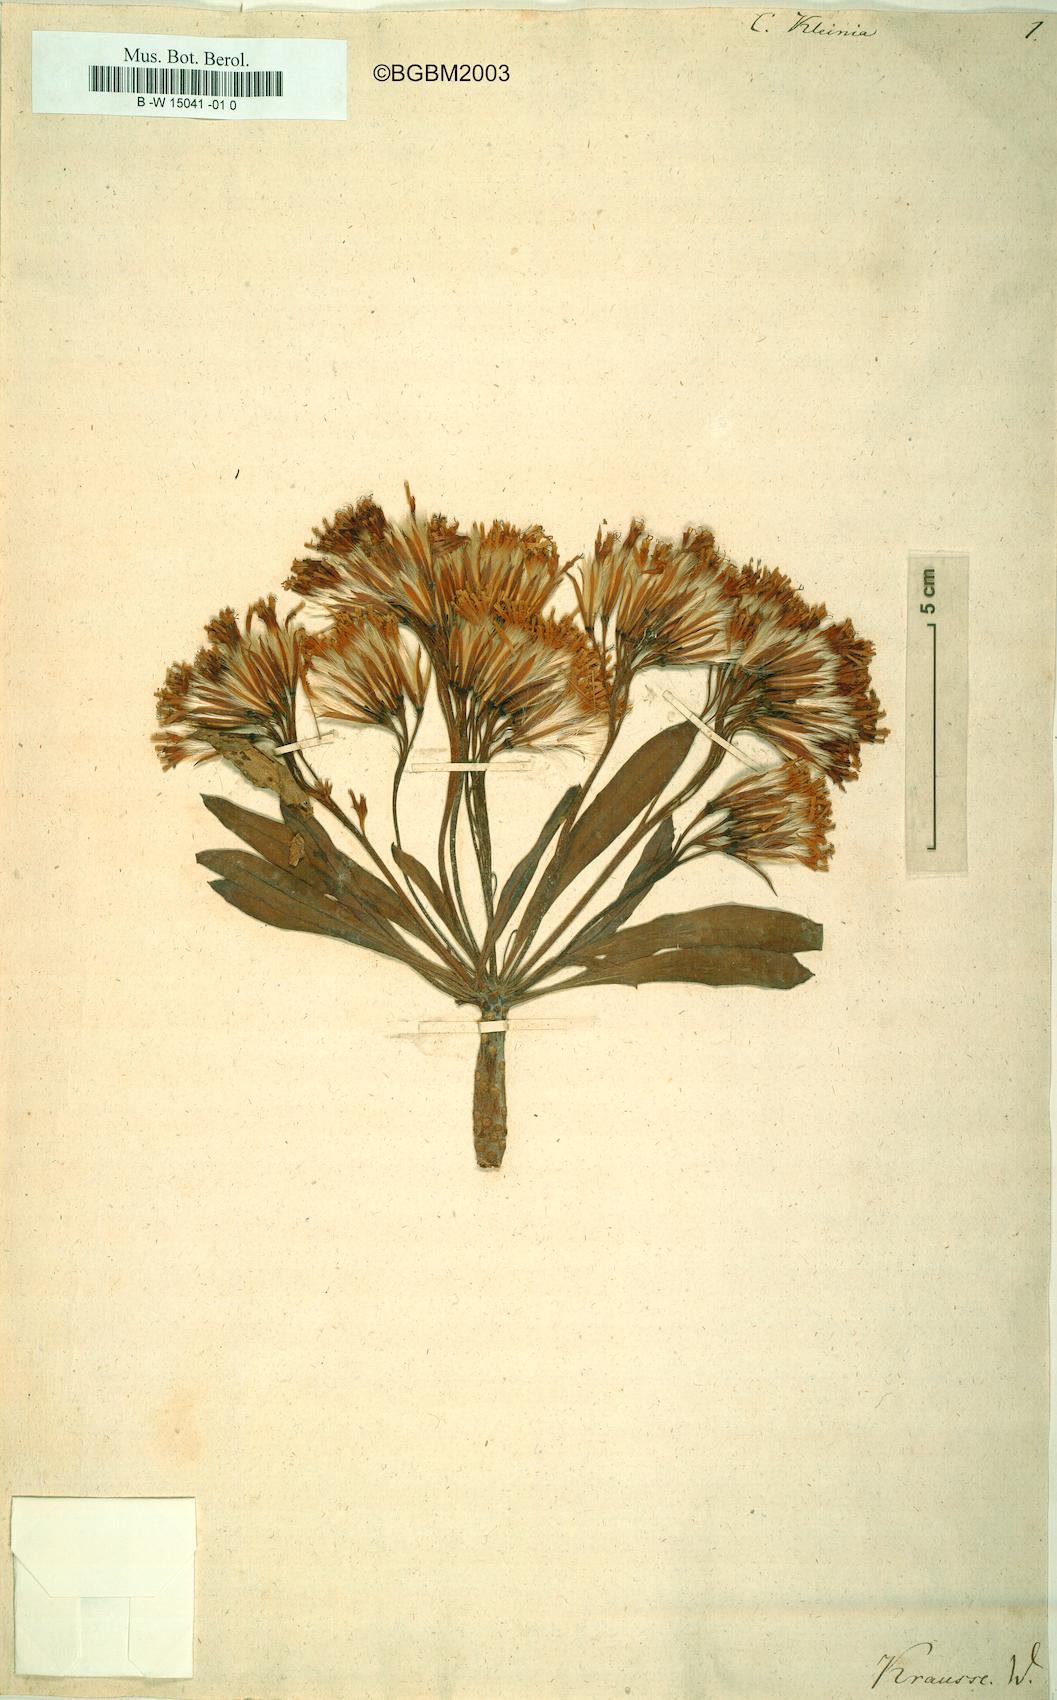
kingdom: Plantae
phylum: Tracheophyta
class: Magnoliopsida
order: Asterales
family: Asteraceae
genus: Cacalia
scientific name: Cacalia kleinia
